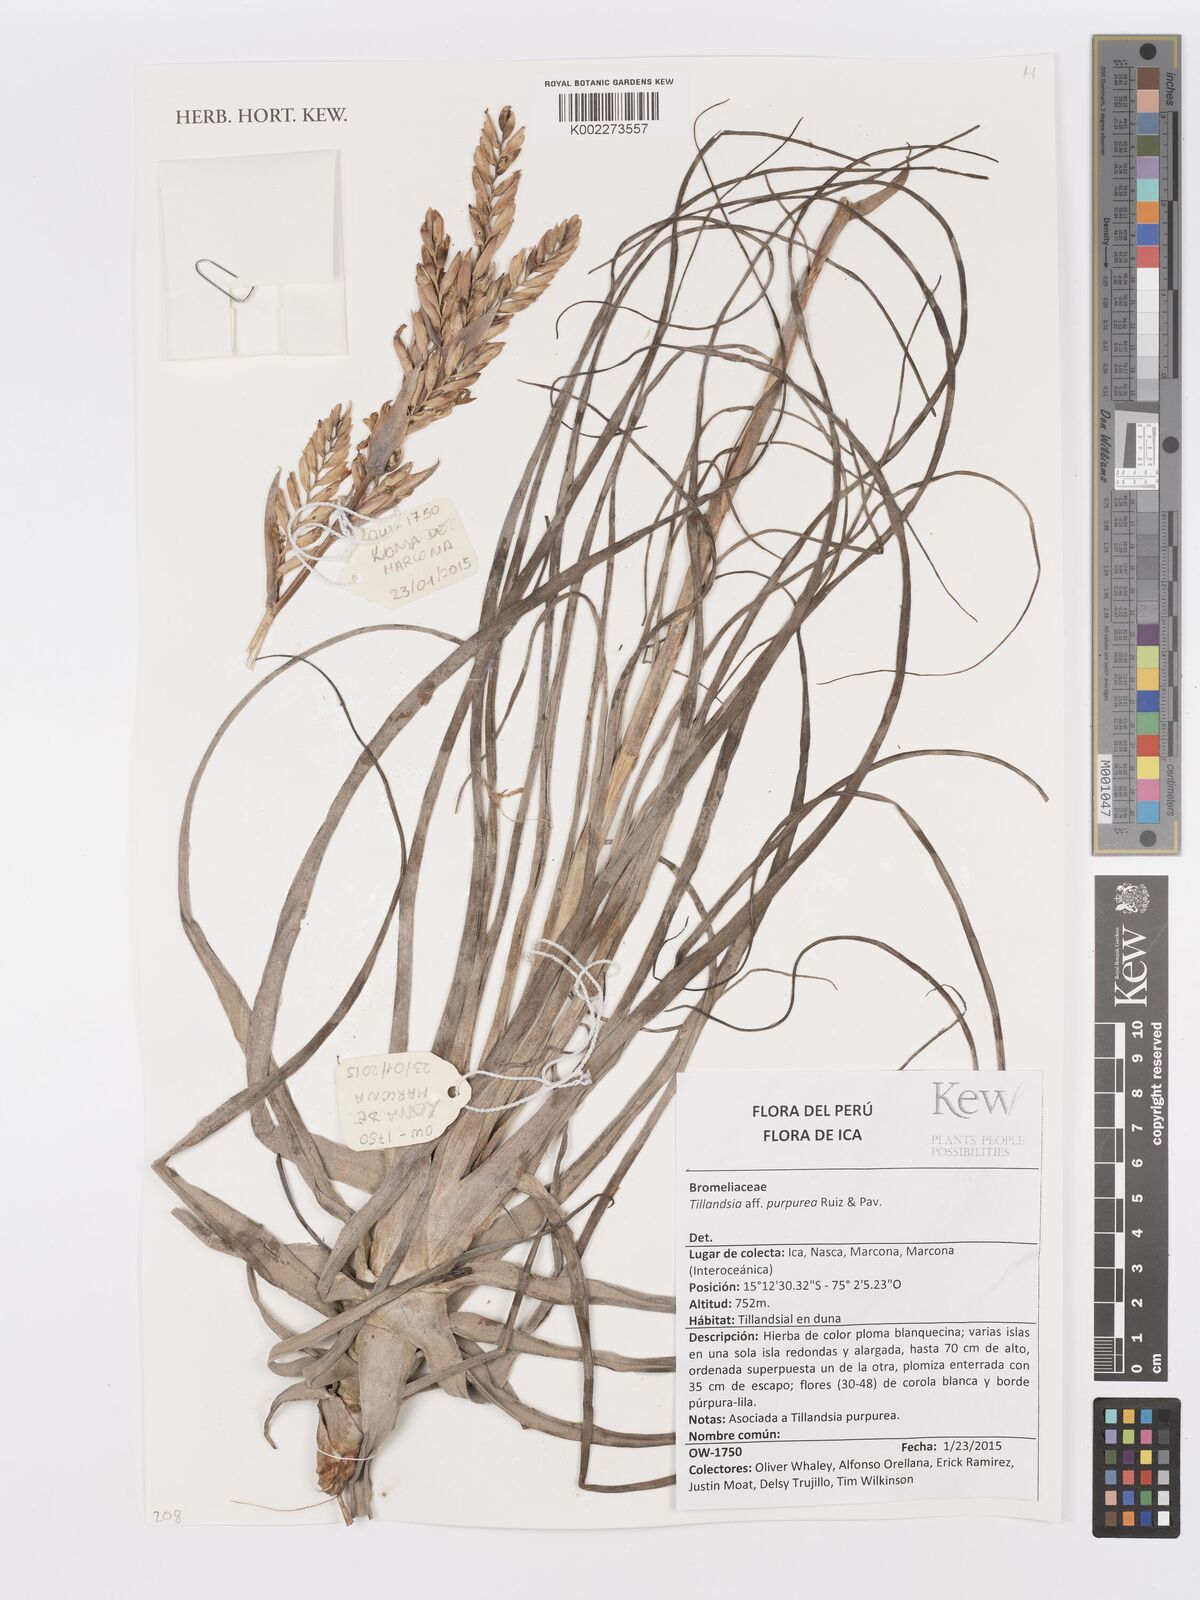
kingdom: Plantae
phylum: Tracheophyta
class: Liliopsida
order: Poales
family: Bromeliaceae
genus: Tillandsia
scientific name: Tillandsia purpurea
